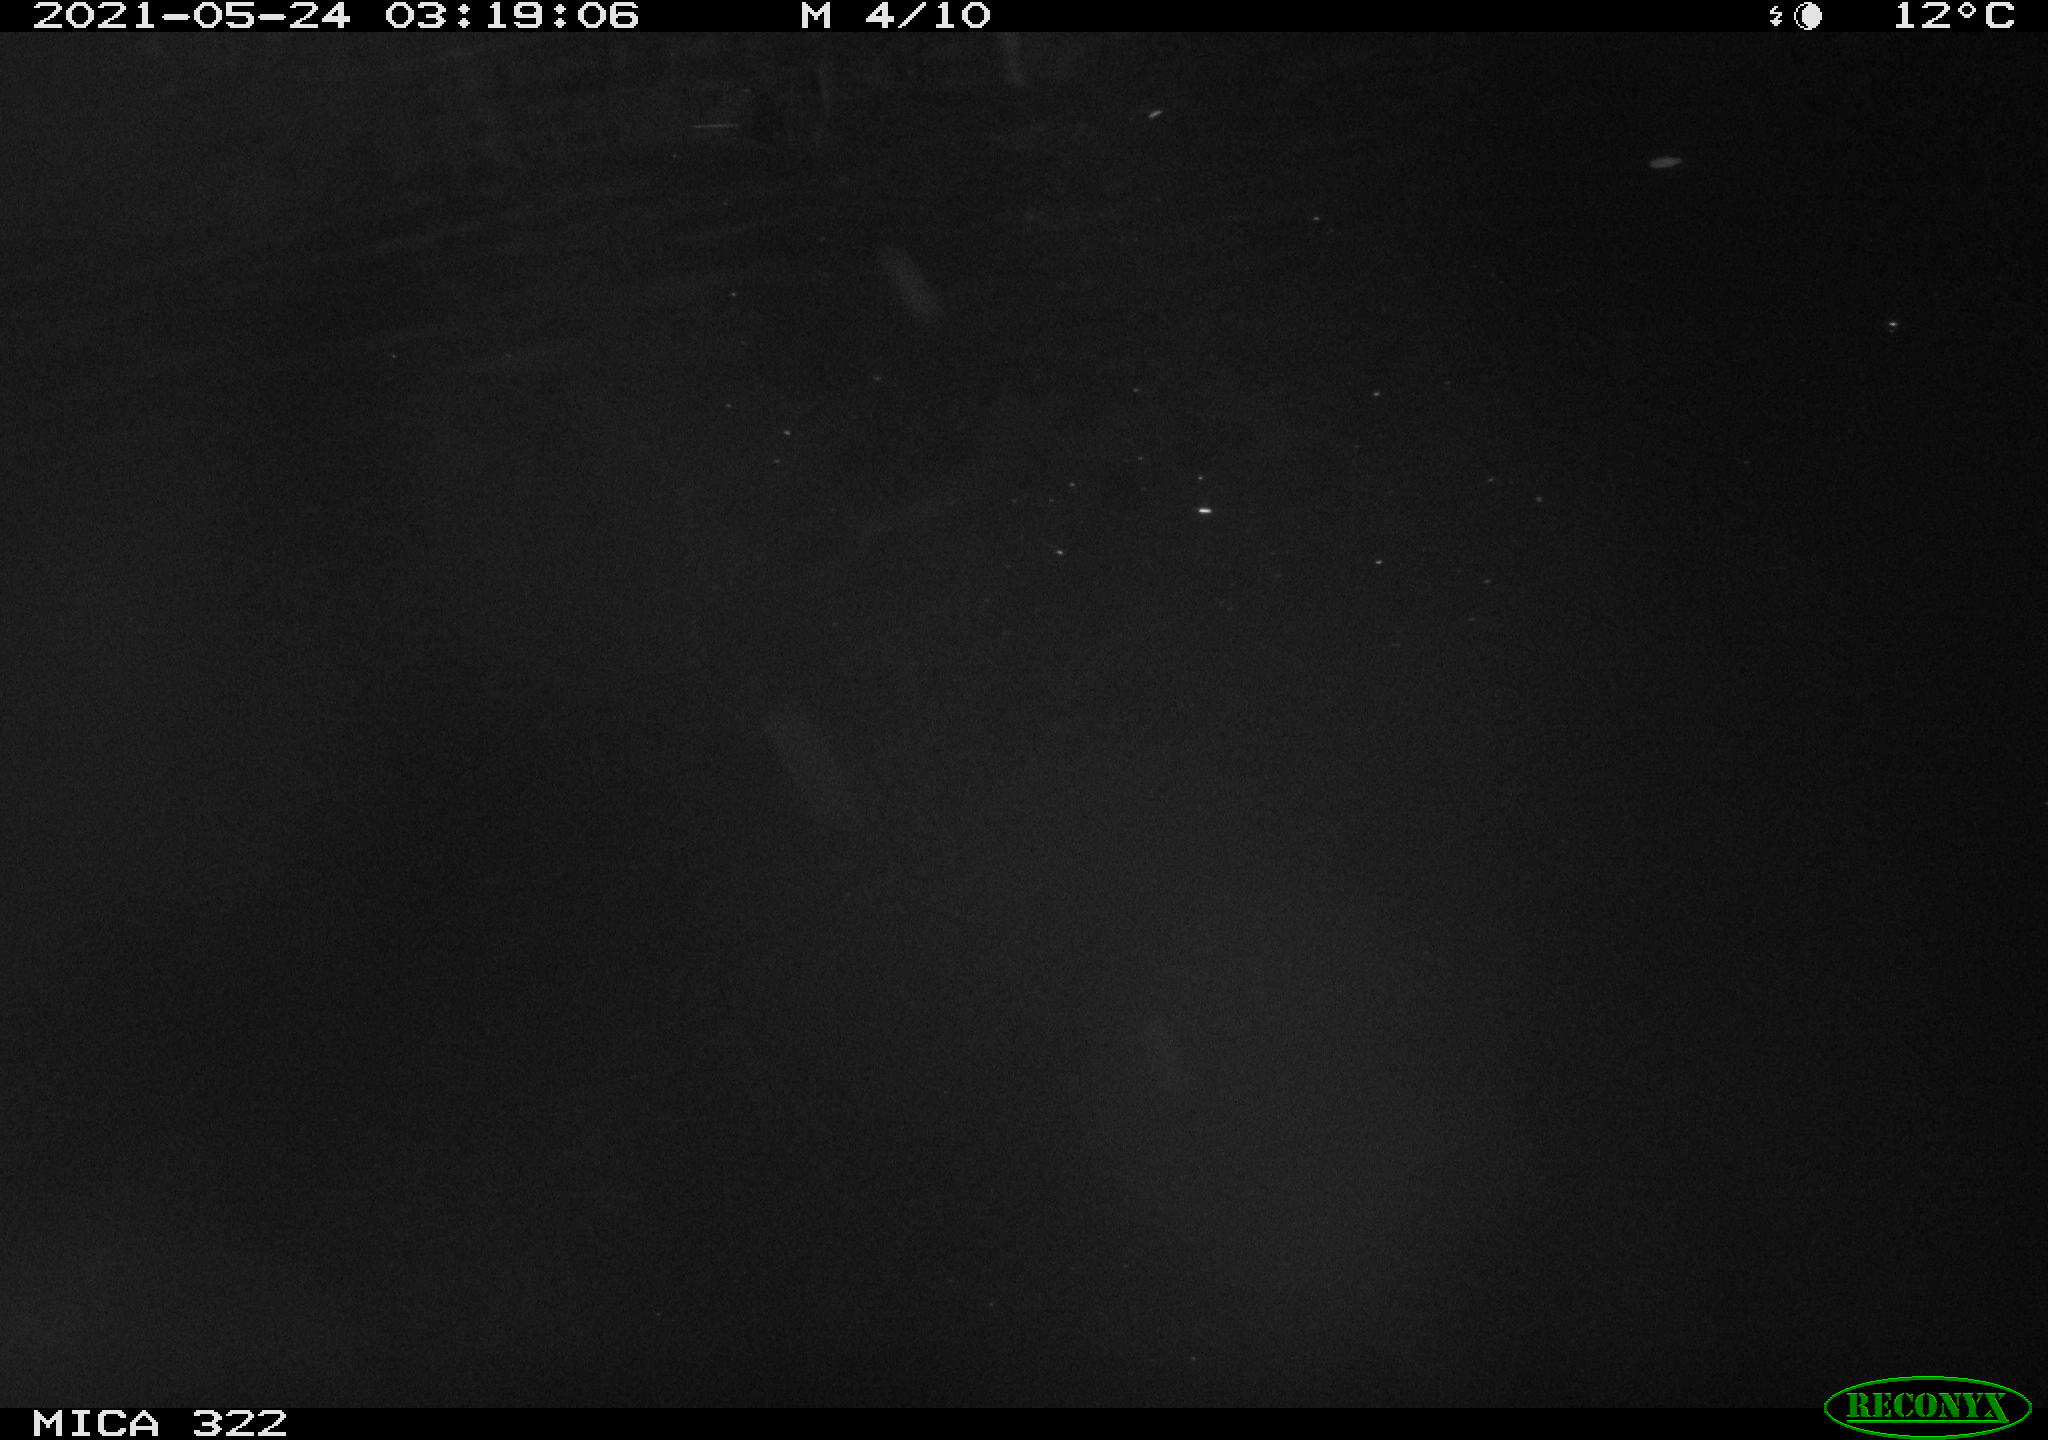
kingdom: Animalia
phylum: Chordata
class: Aves
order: Anseriformes
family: Anatidae
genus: Anas
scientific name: Anas platyrhynchos
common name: Mallard
